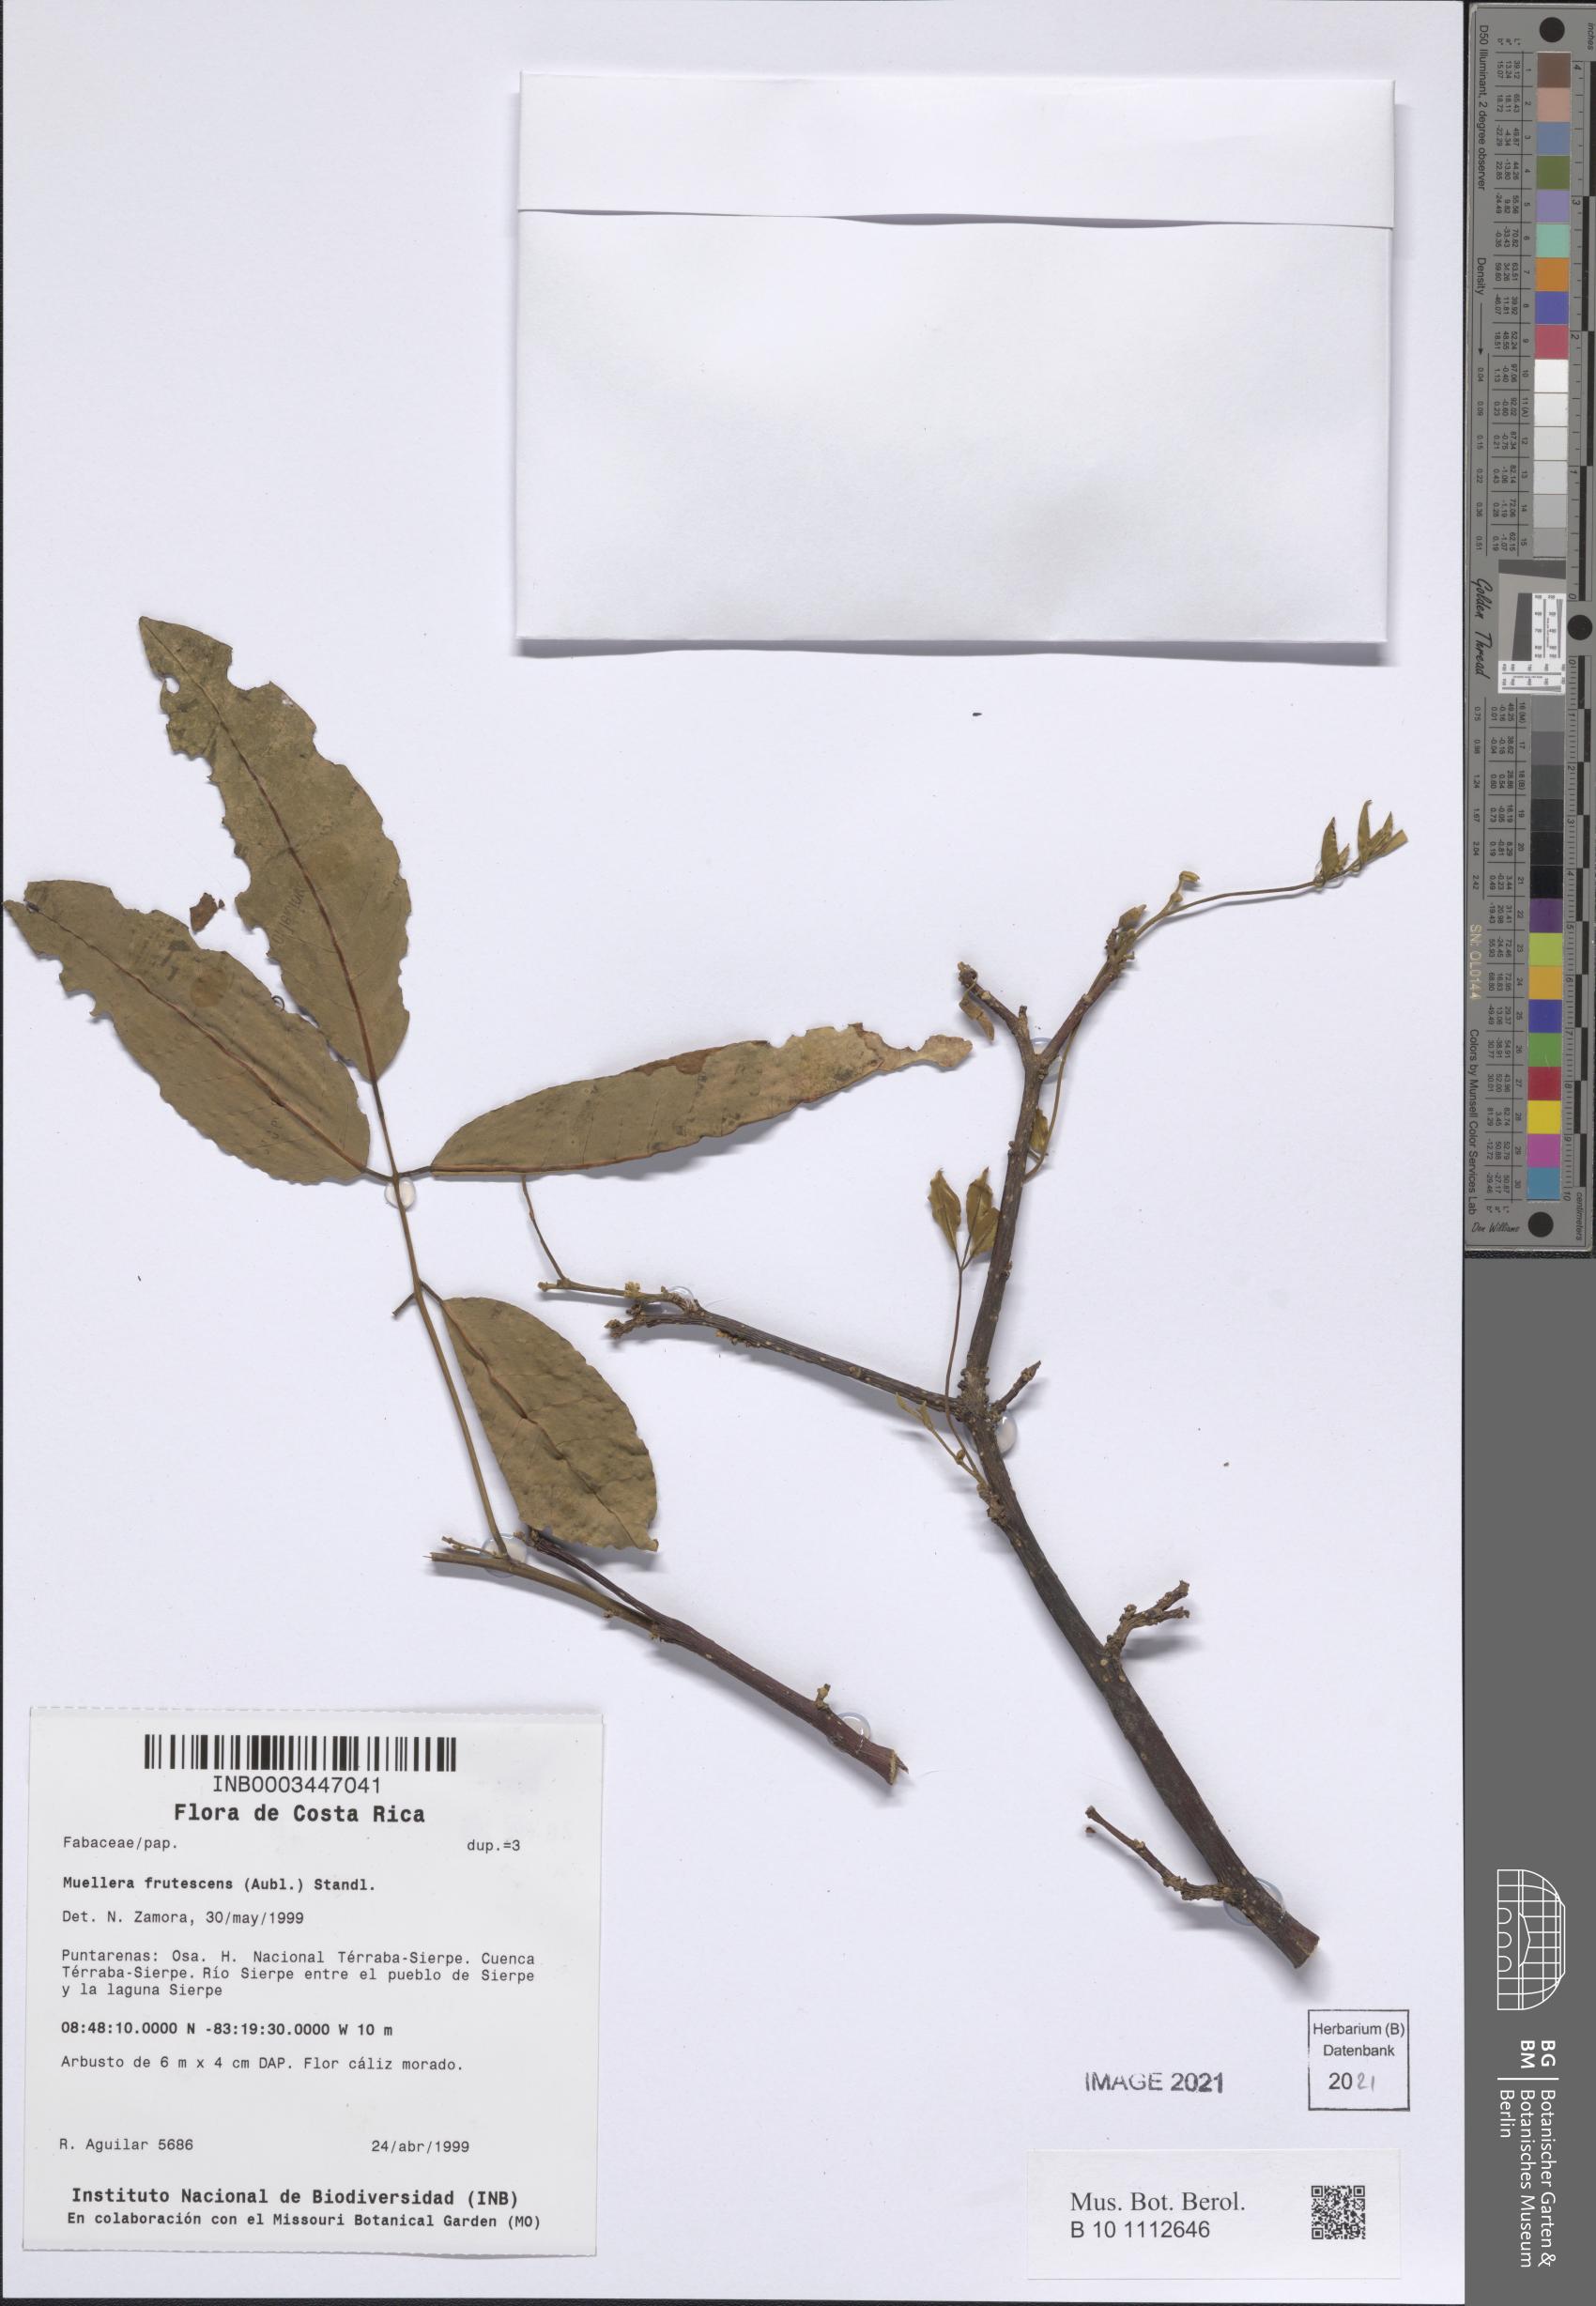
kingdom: Plantae
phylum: Tracheophyta
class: Magnoliopsida
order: Fabales
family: Fabaceae
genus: Muellera
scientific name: Muellera monilis
